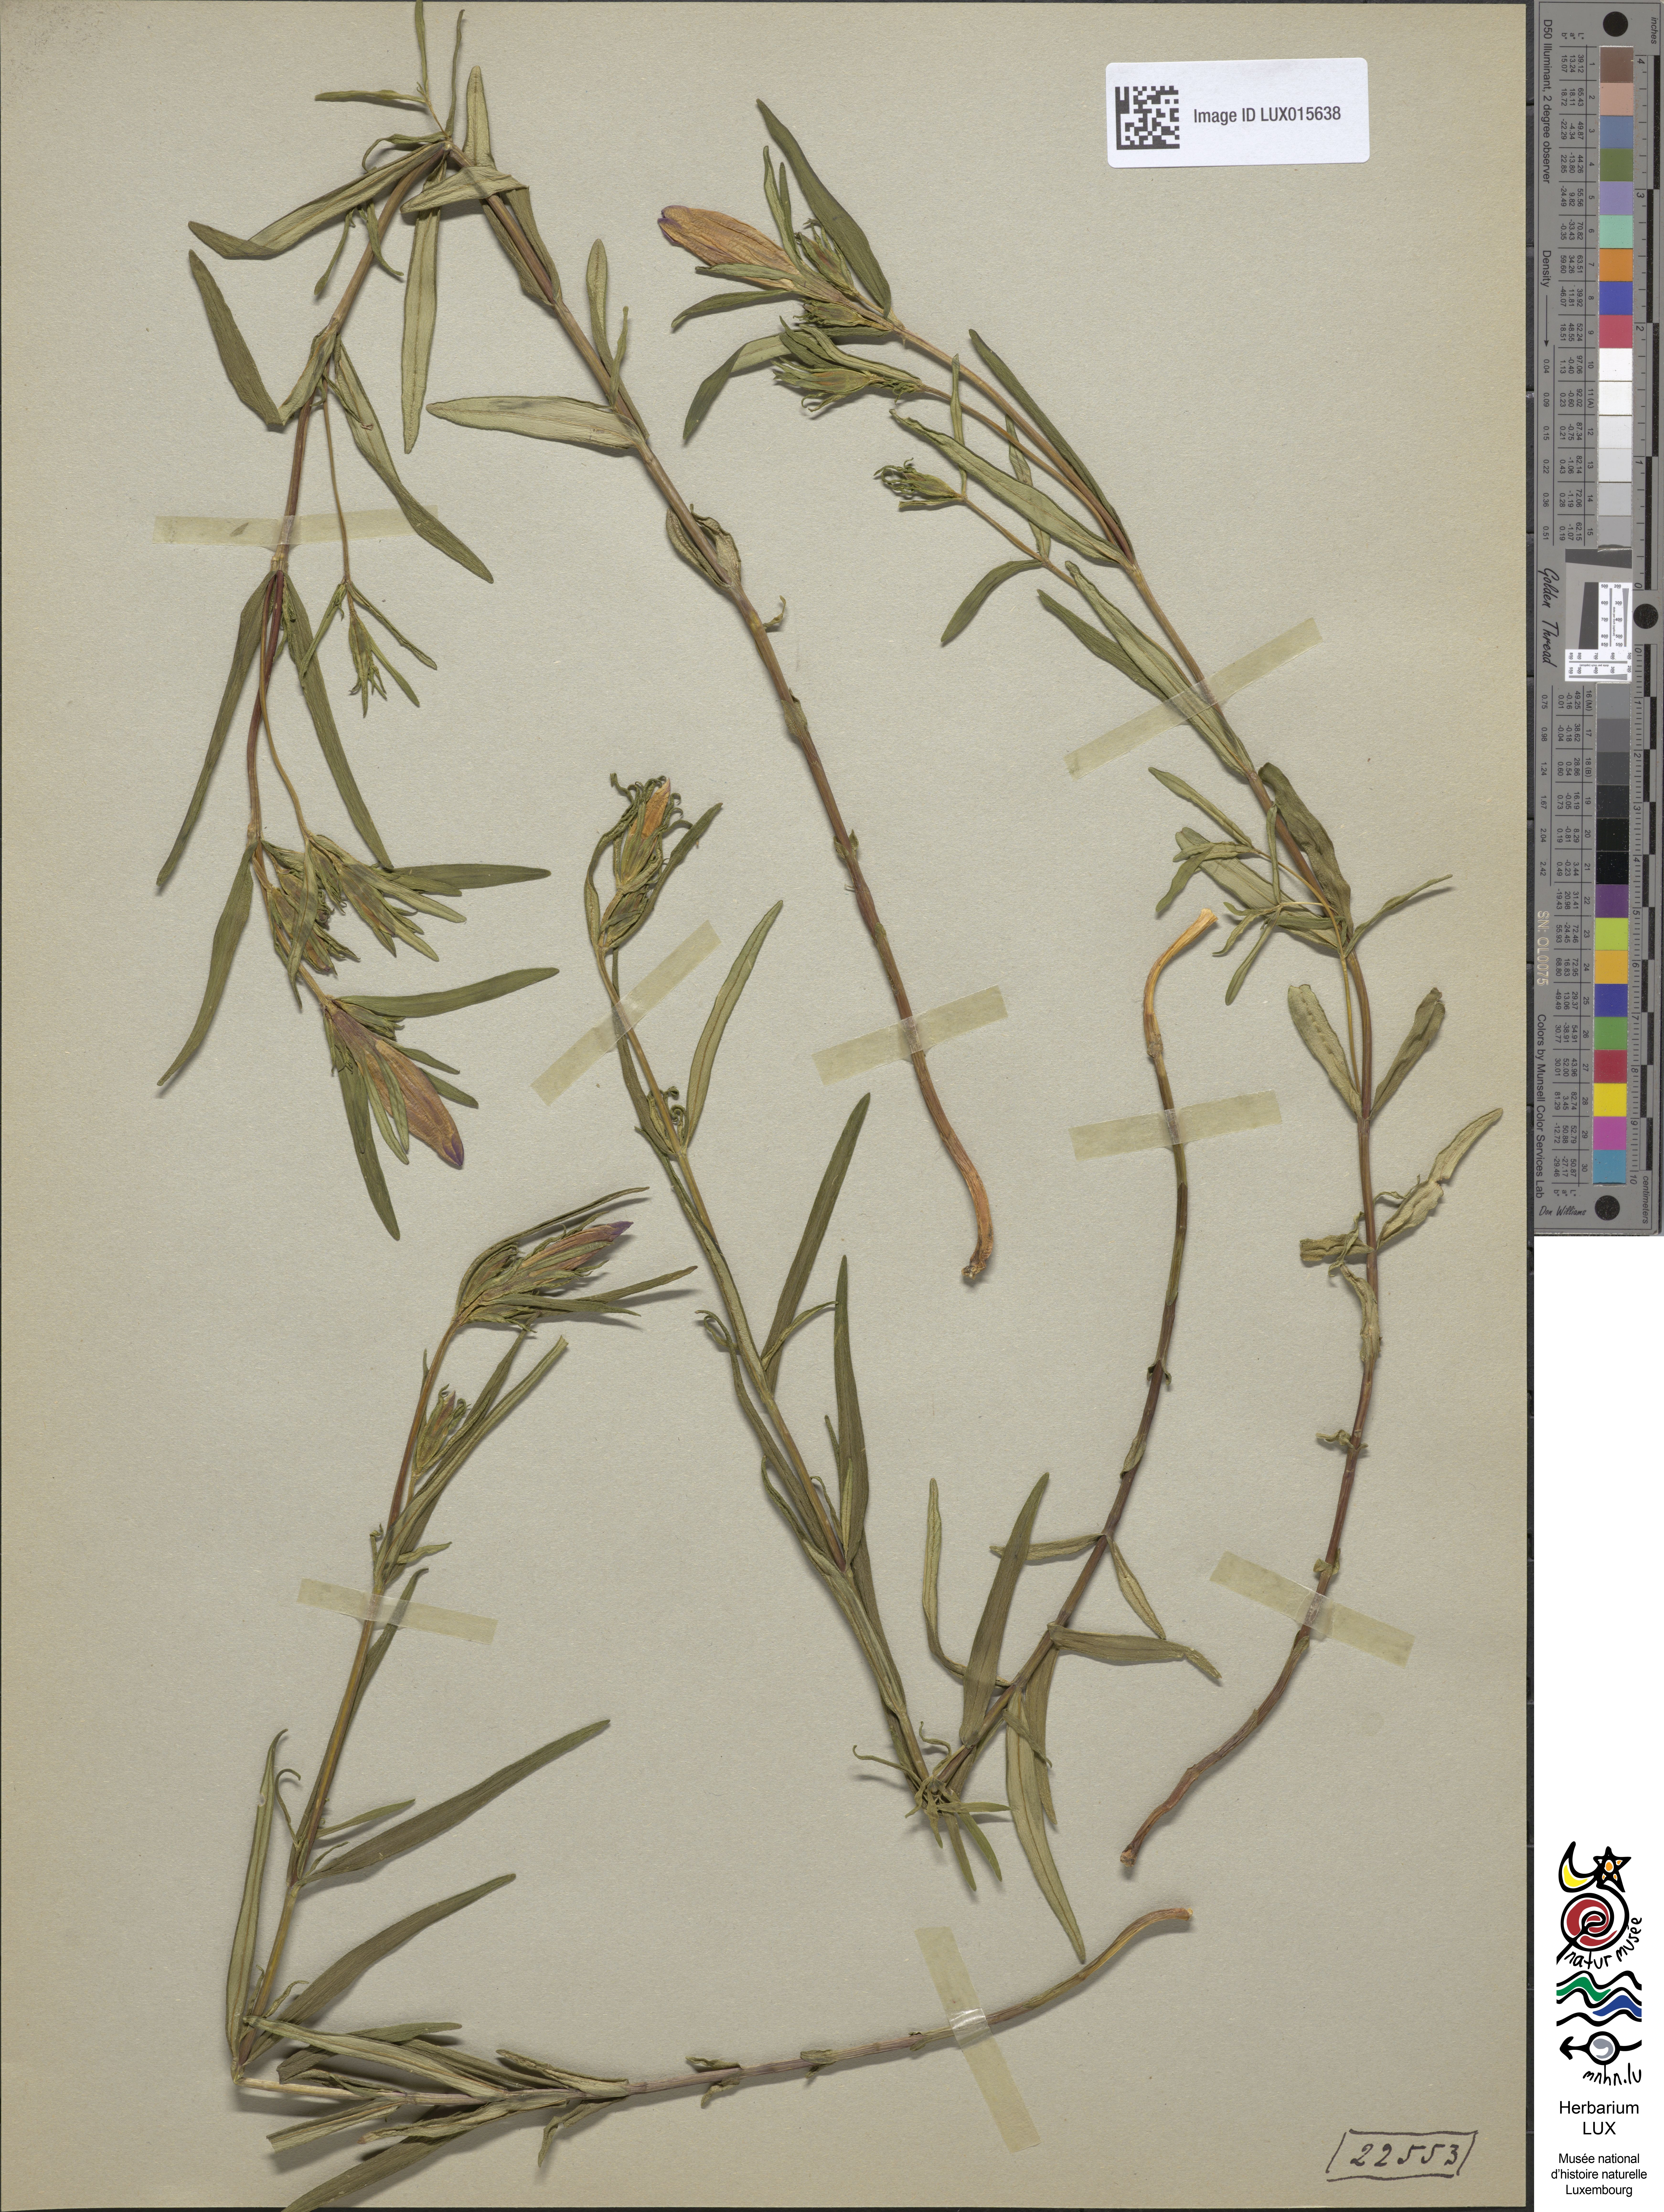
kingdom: Plantae
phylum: Tracheophyta
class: Magnoliopsida
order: Gentianales
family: Gentianaceae
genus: Gentiana
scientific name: Gentiana pneumonanthe
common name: Marsh gentian
